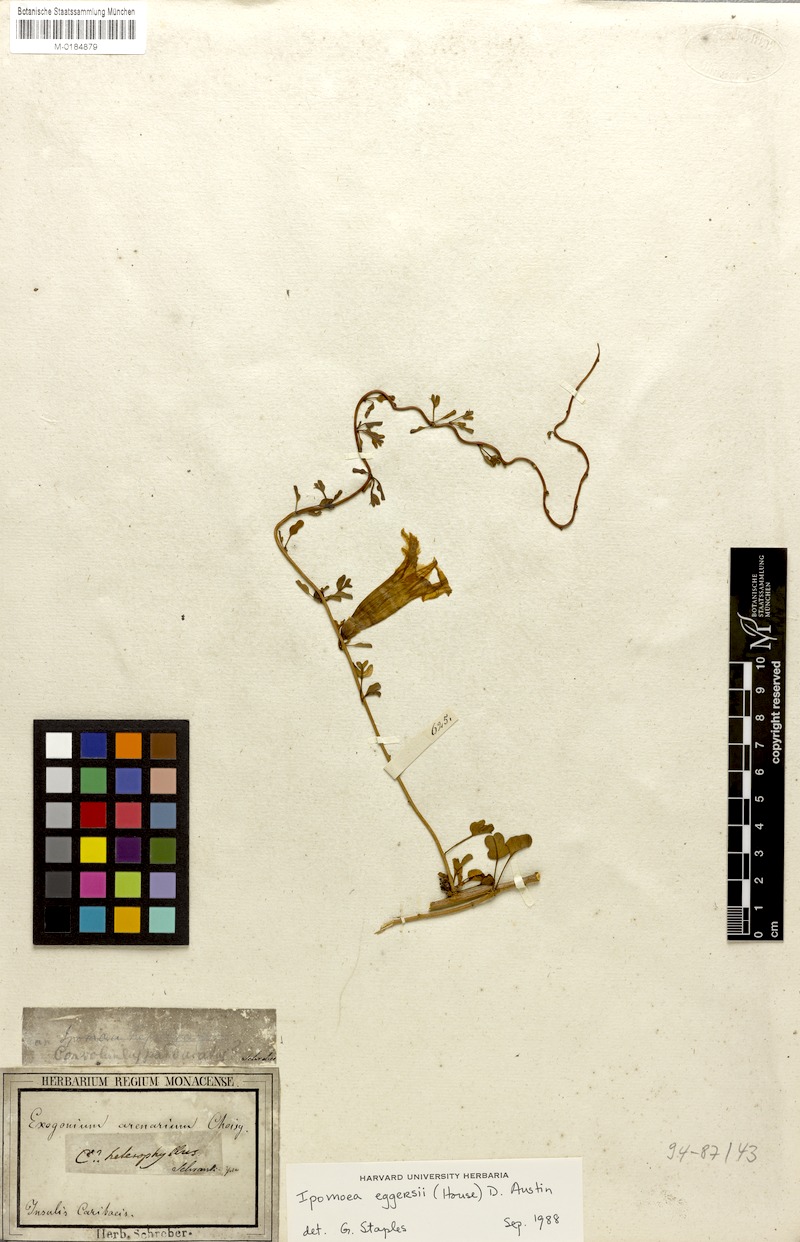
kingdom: Plantae
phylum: Tracheophyta
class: Magnoliopsida
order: Solanales
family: Convolvulaceae
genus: Ipomoea
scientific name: Ipomoea eggersiana
